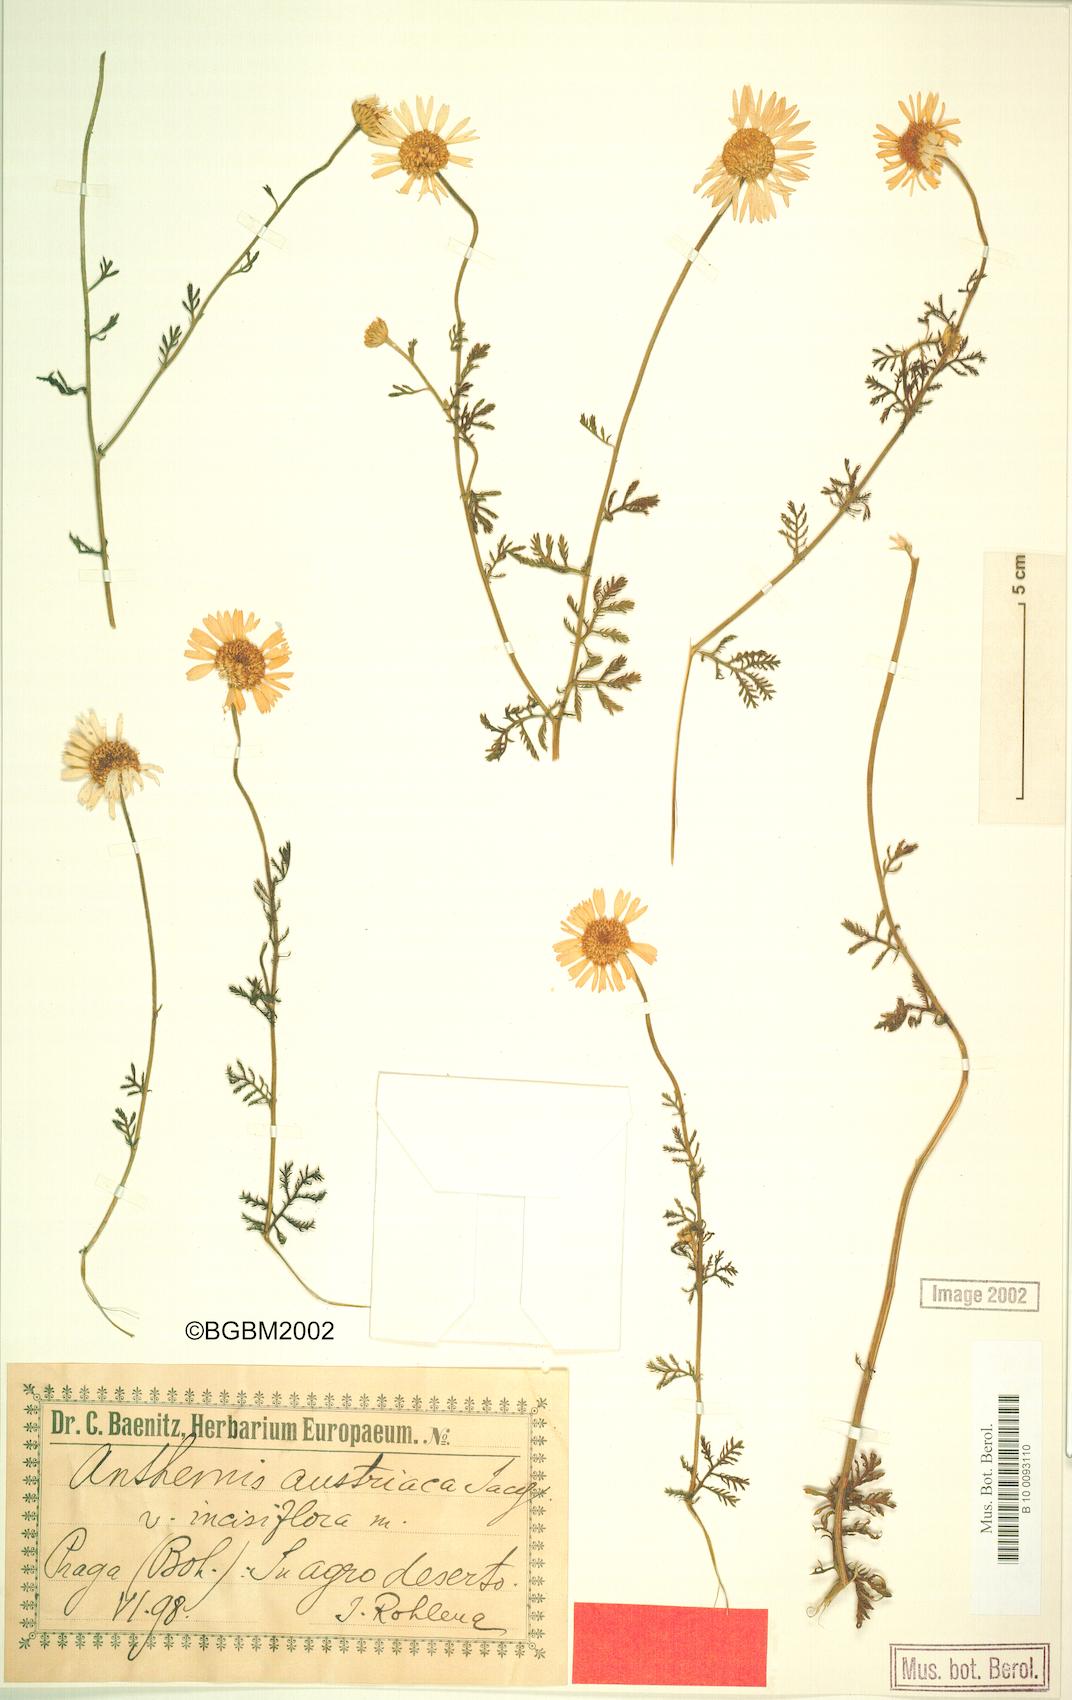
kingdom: Plantae
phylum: Tracheophyta
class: Magnoliopsida
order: Asterales
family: Asteraceae
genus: Cota
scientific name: Cota austriaca
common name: Austrian chamomile
